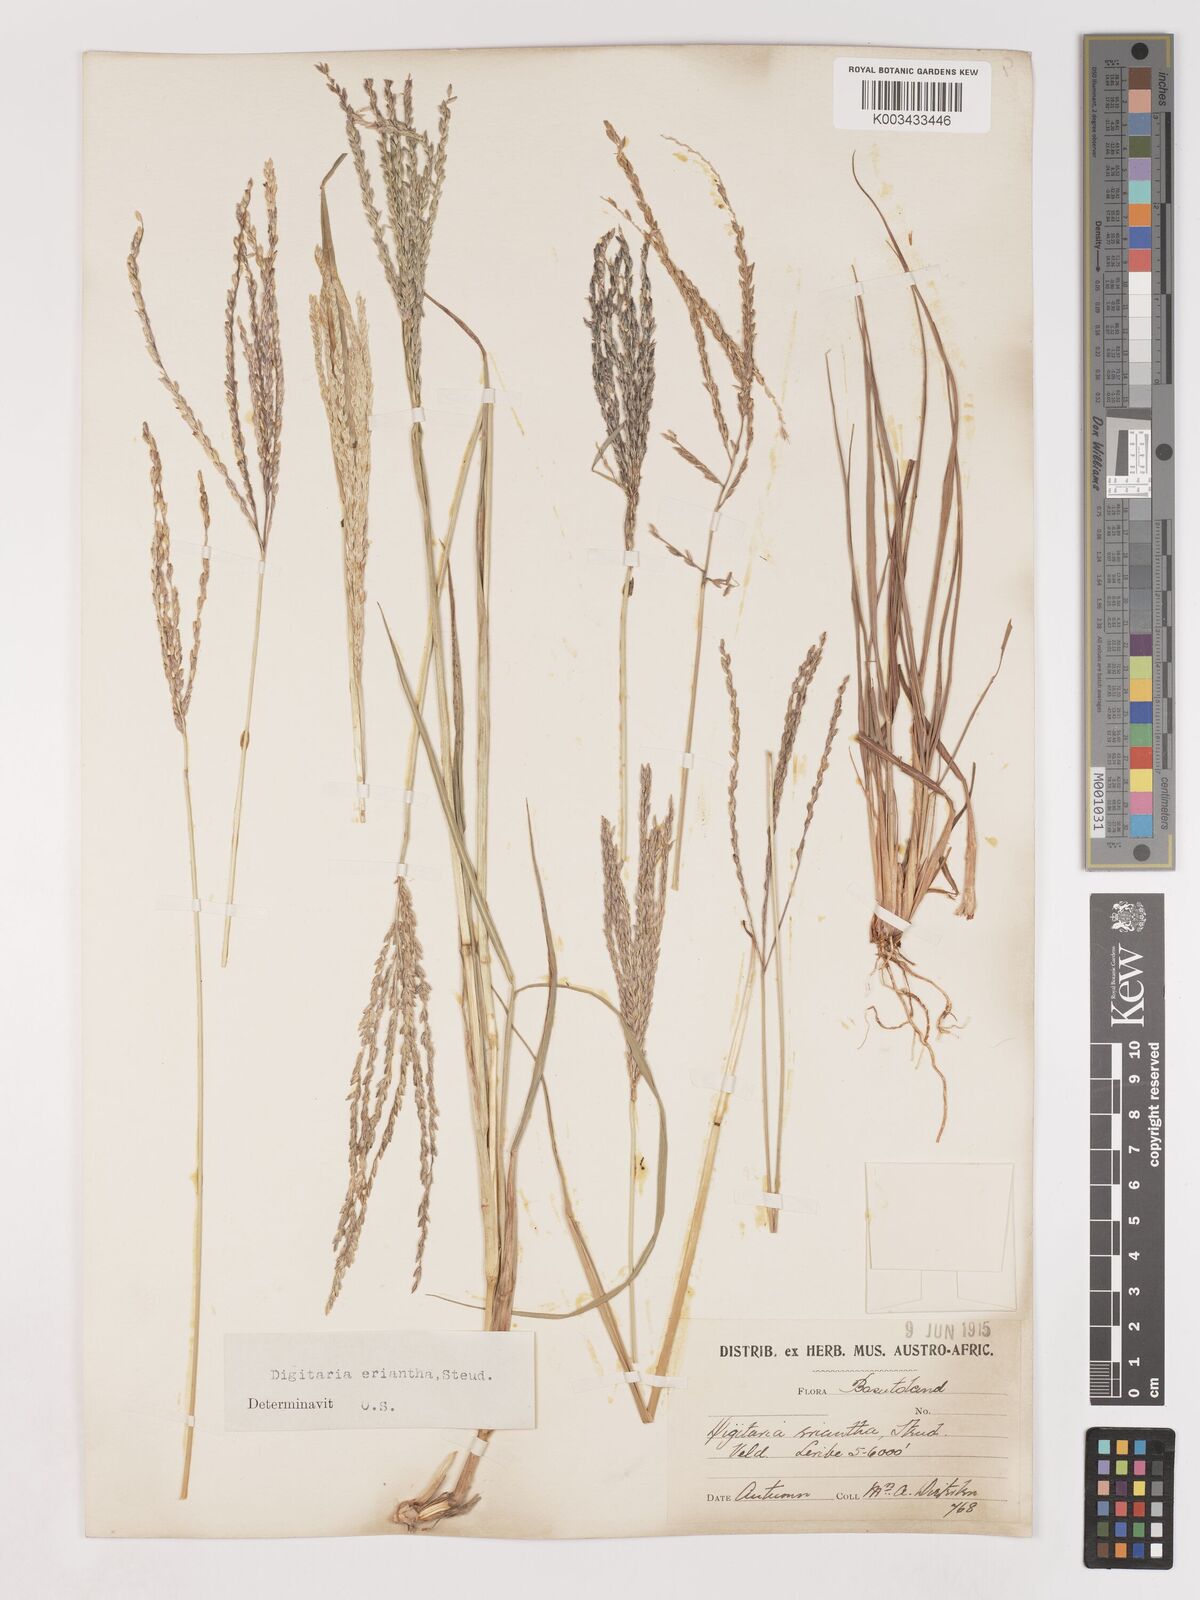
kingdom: Plantae
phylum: Tracheophyta
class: Liliopsida
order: Poales
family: Poaceae
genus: Digitaria
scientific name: Digitaria eriantha
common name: Digitgrass
